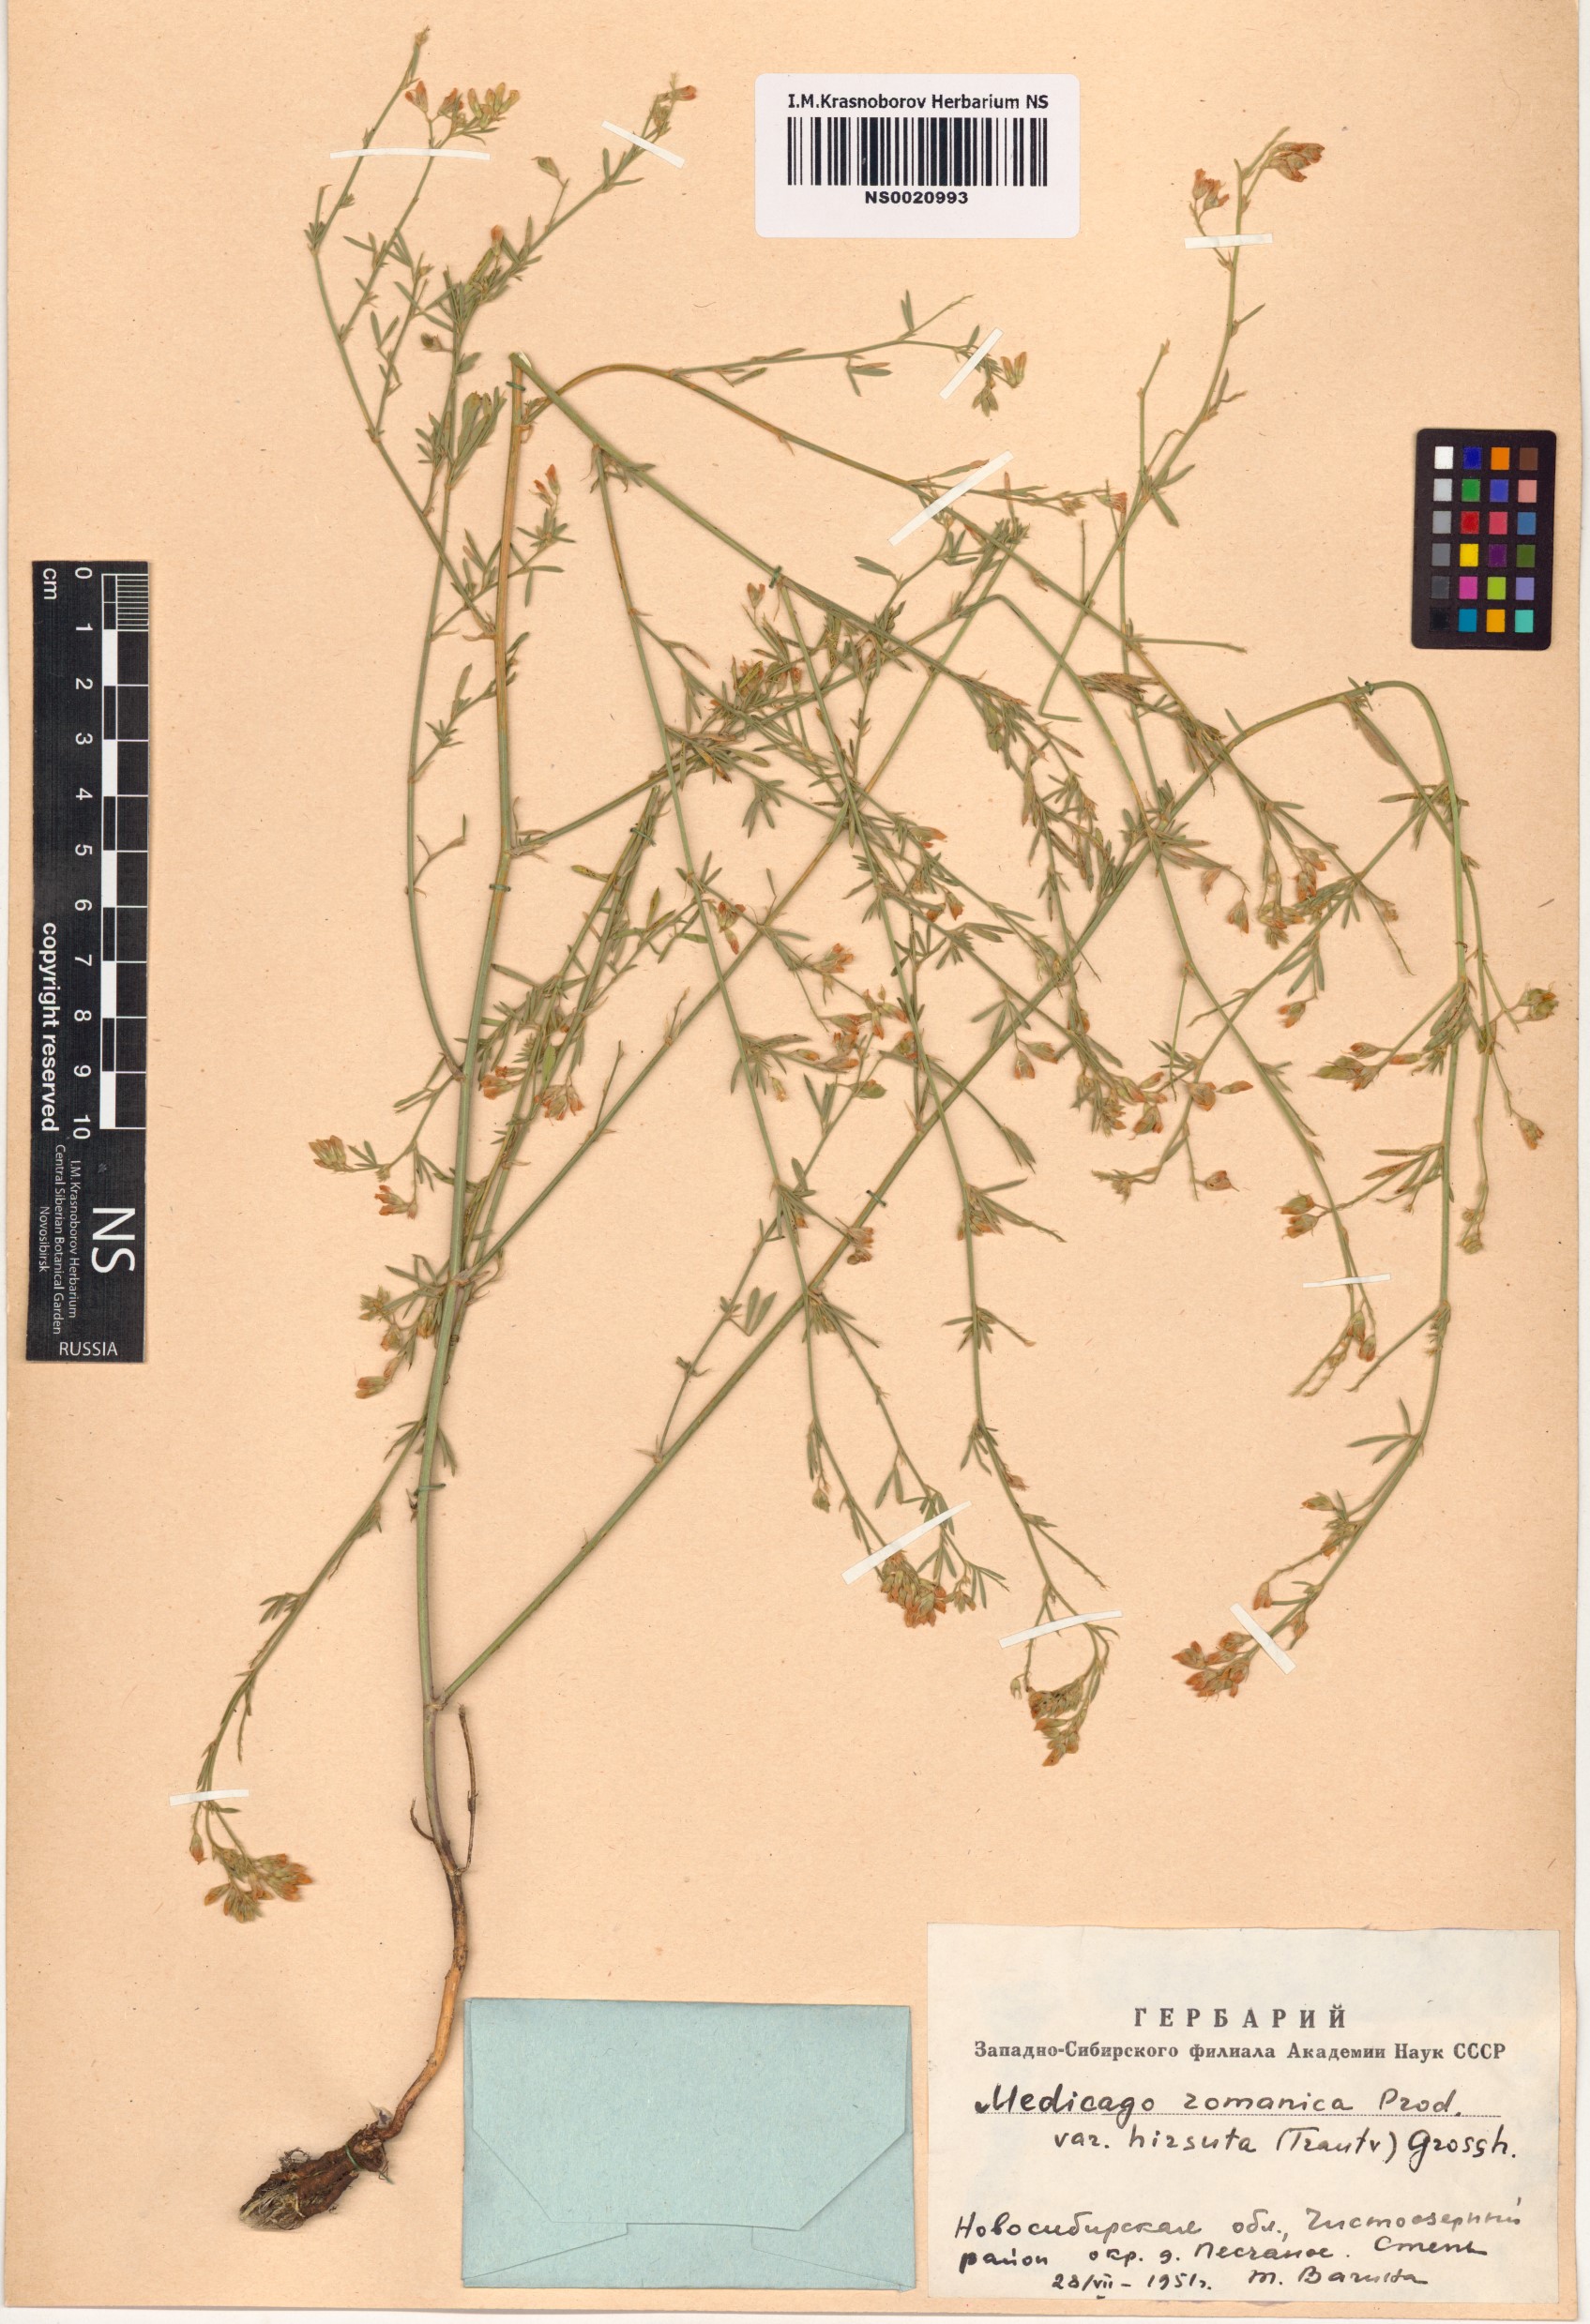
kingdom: Plantae
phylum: Tracheophyta
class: Magnoliopsida
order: Fabales
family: Fabaceae
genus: Medicago
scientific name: Medicago falcata
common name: Sickle medick
